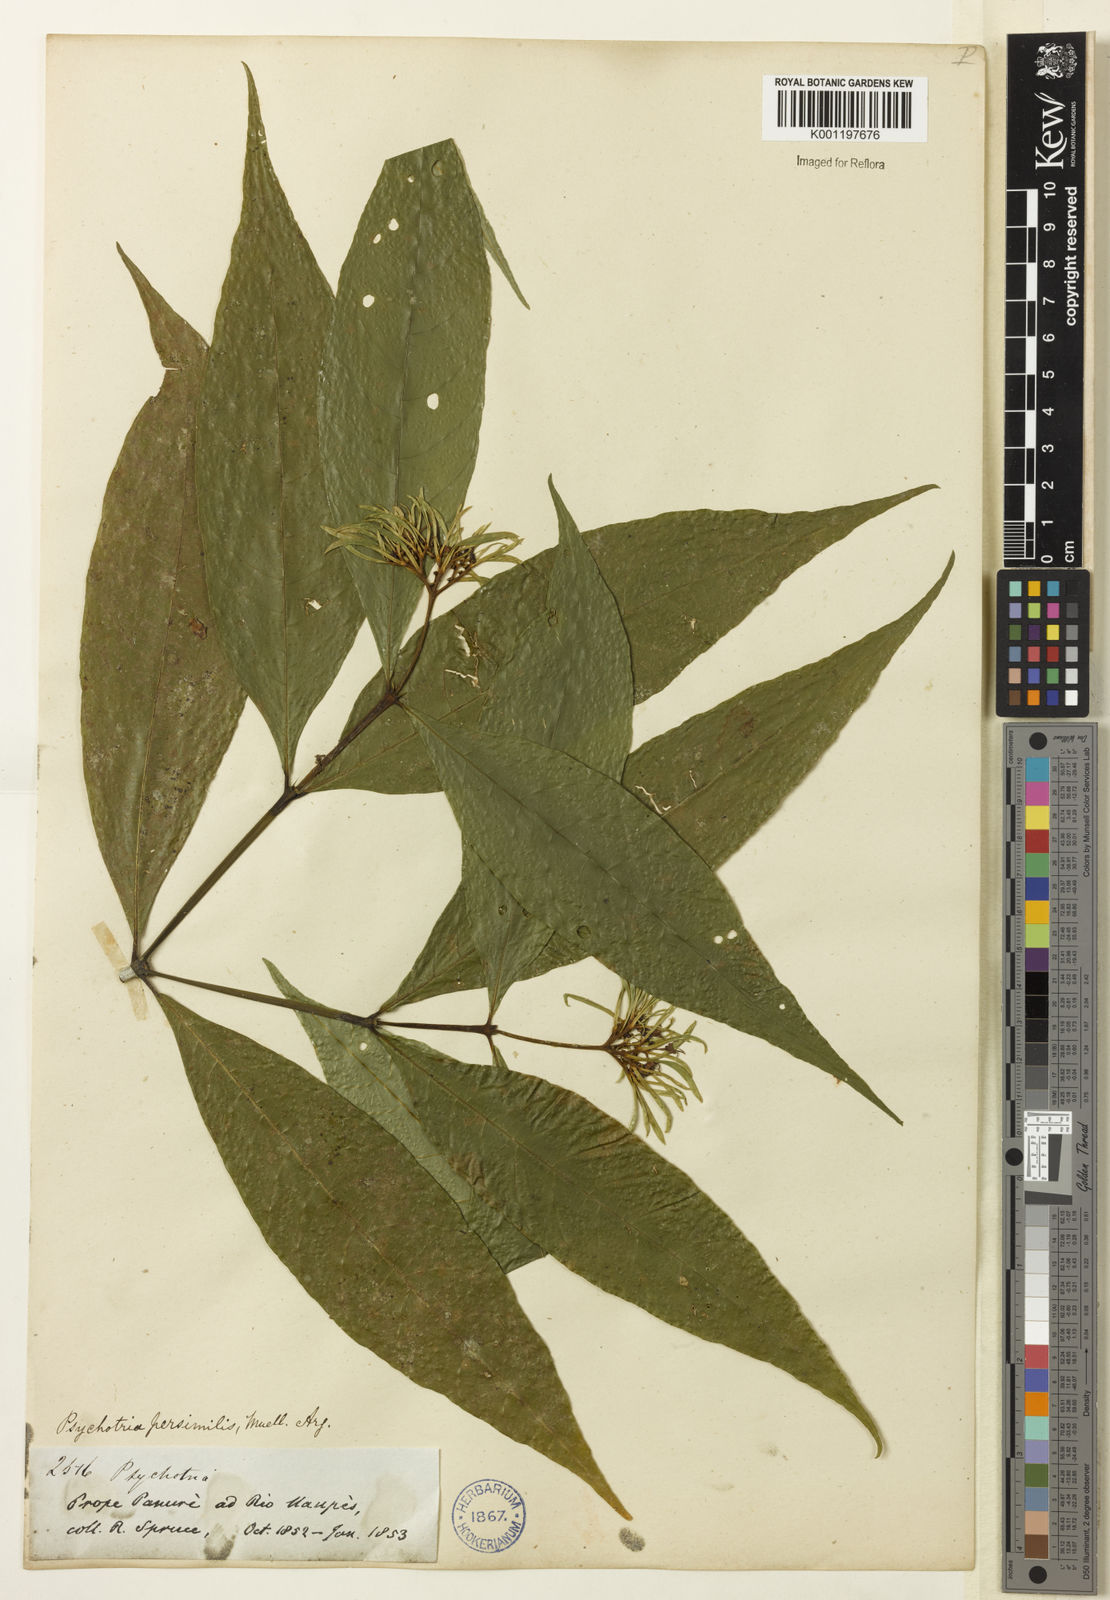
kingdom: Plantae
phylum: Tracheophyta
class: Magnoliopsida
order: Gentianales
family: Rubiaceae
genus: Palicourea
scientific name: Palicourea justiciifolia
